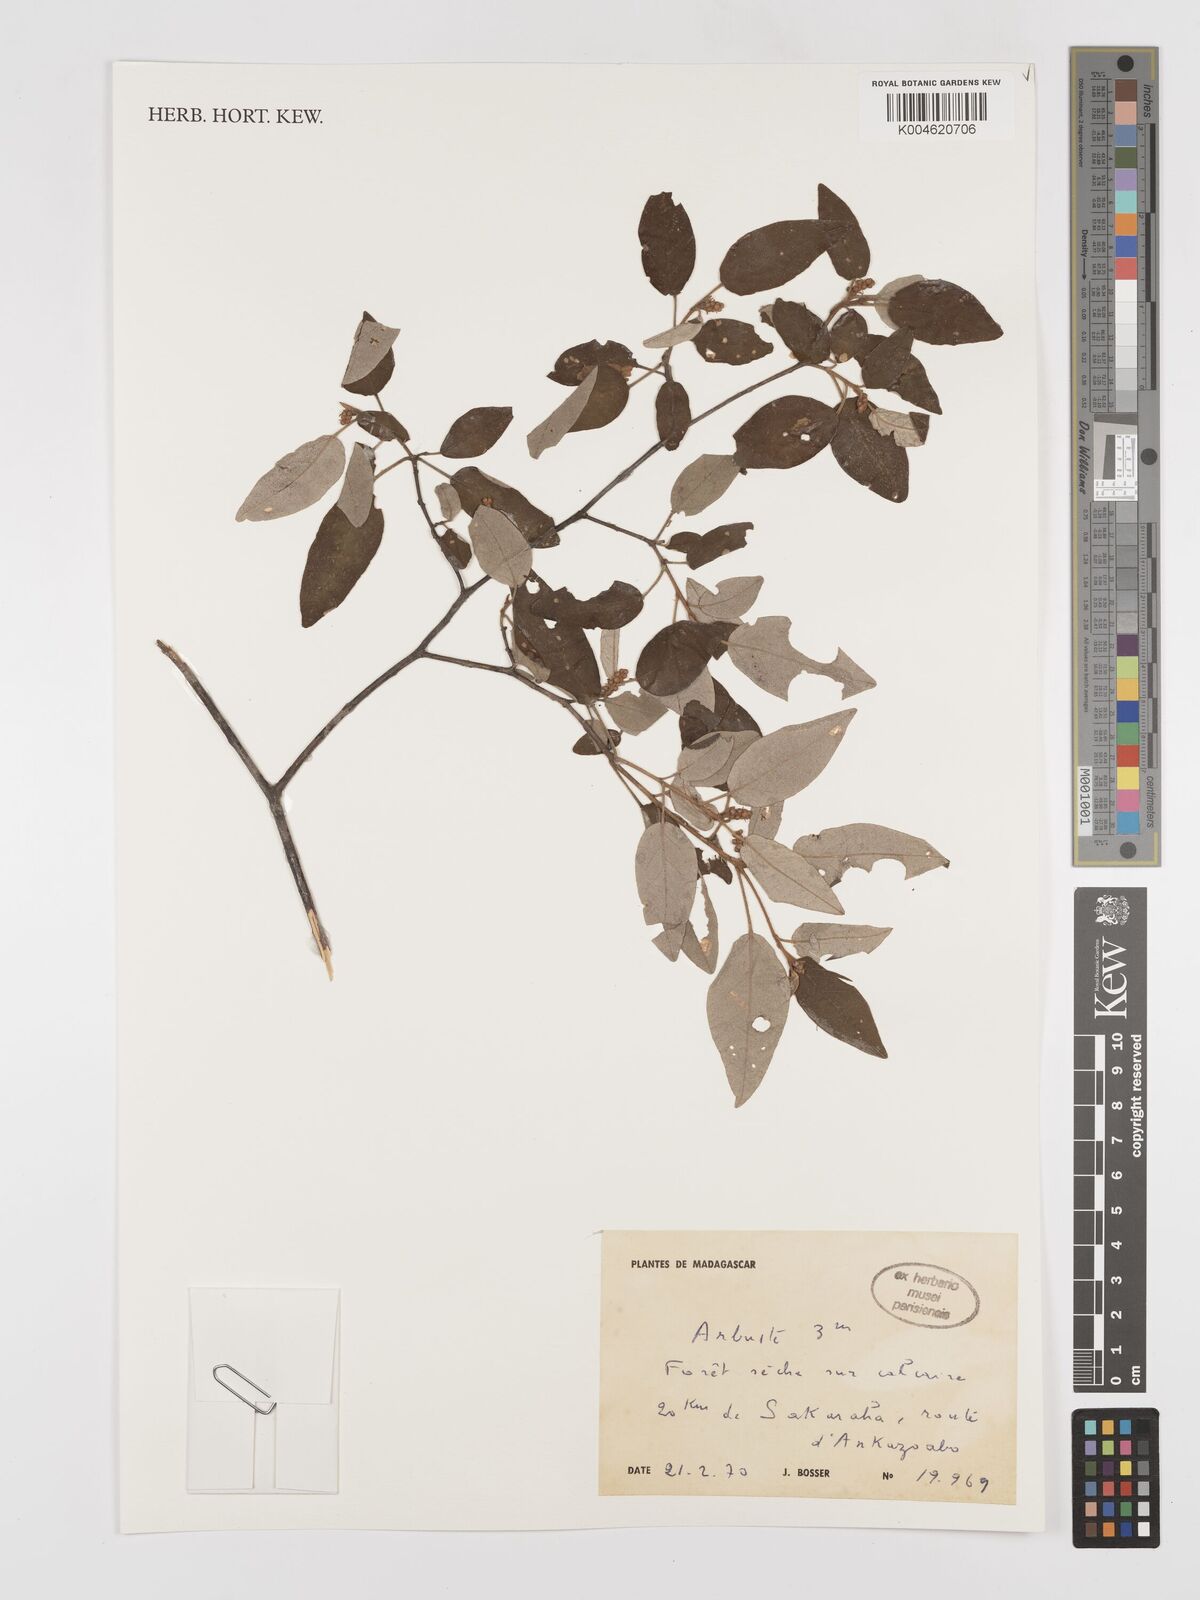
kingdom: Plantae
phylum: Tracheophyta
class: Magnoliopsida
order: Malpighiales
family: Euphorbiaceae
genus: Croton
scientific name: Croton
